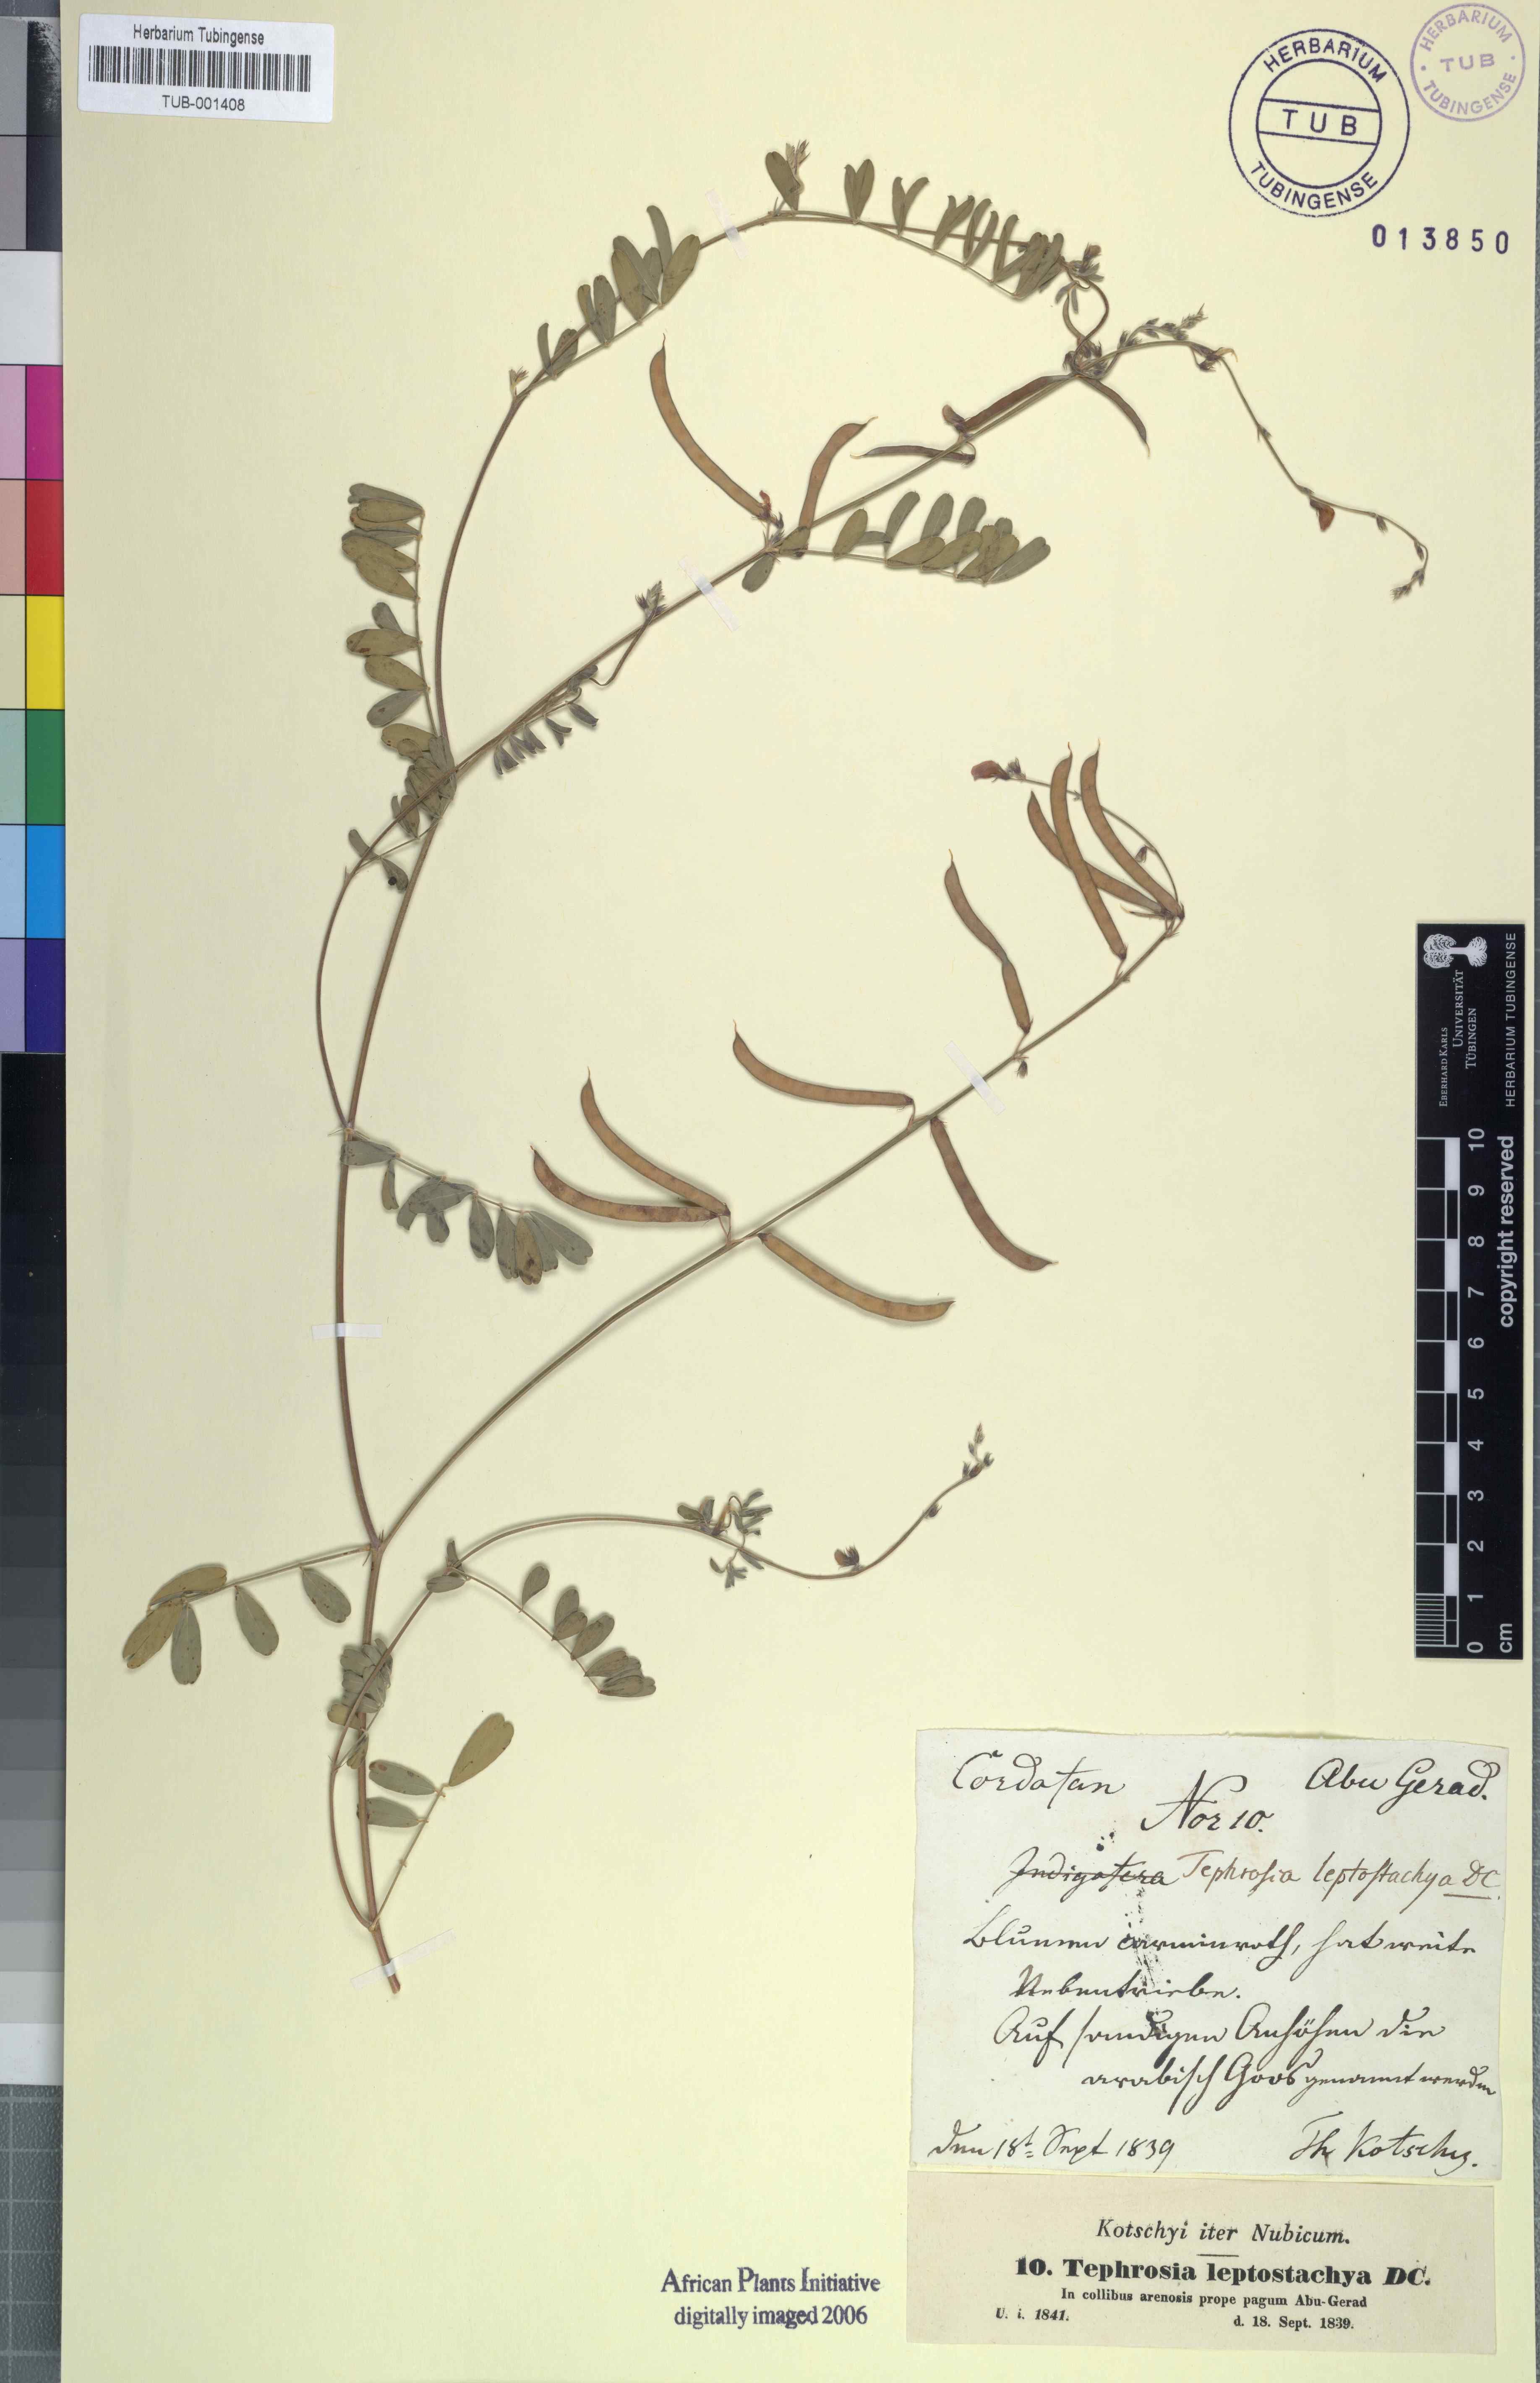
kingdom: Plantae
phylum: Tracheophyta
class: Magnoliopsida
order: Fabales
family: Fabaceae
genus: Tephrosia
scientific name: Tephrosia purpurea
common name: Fishpoison
